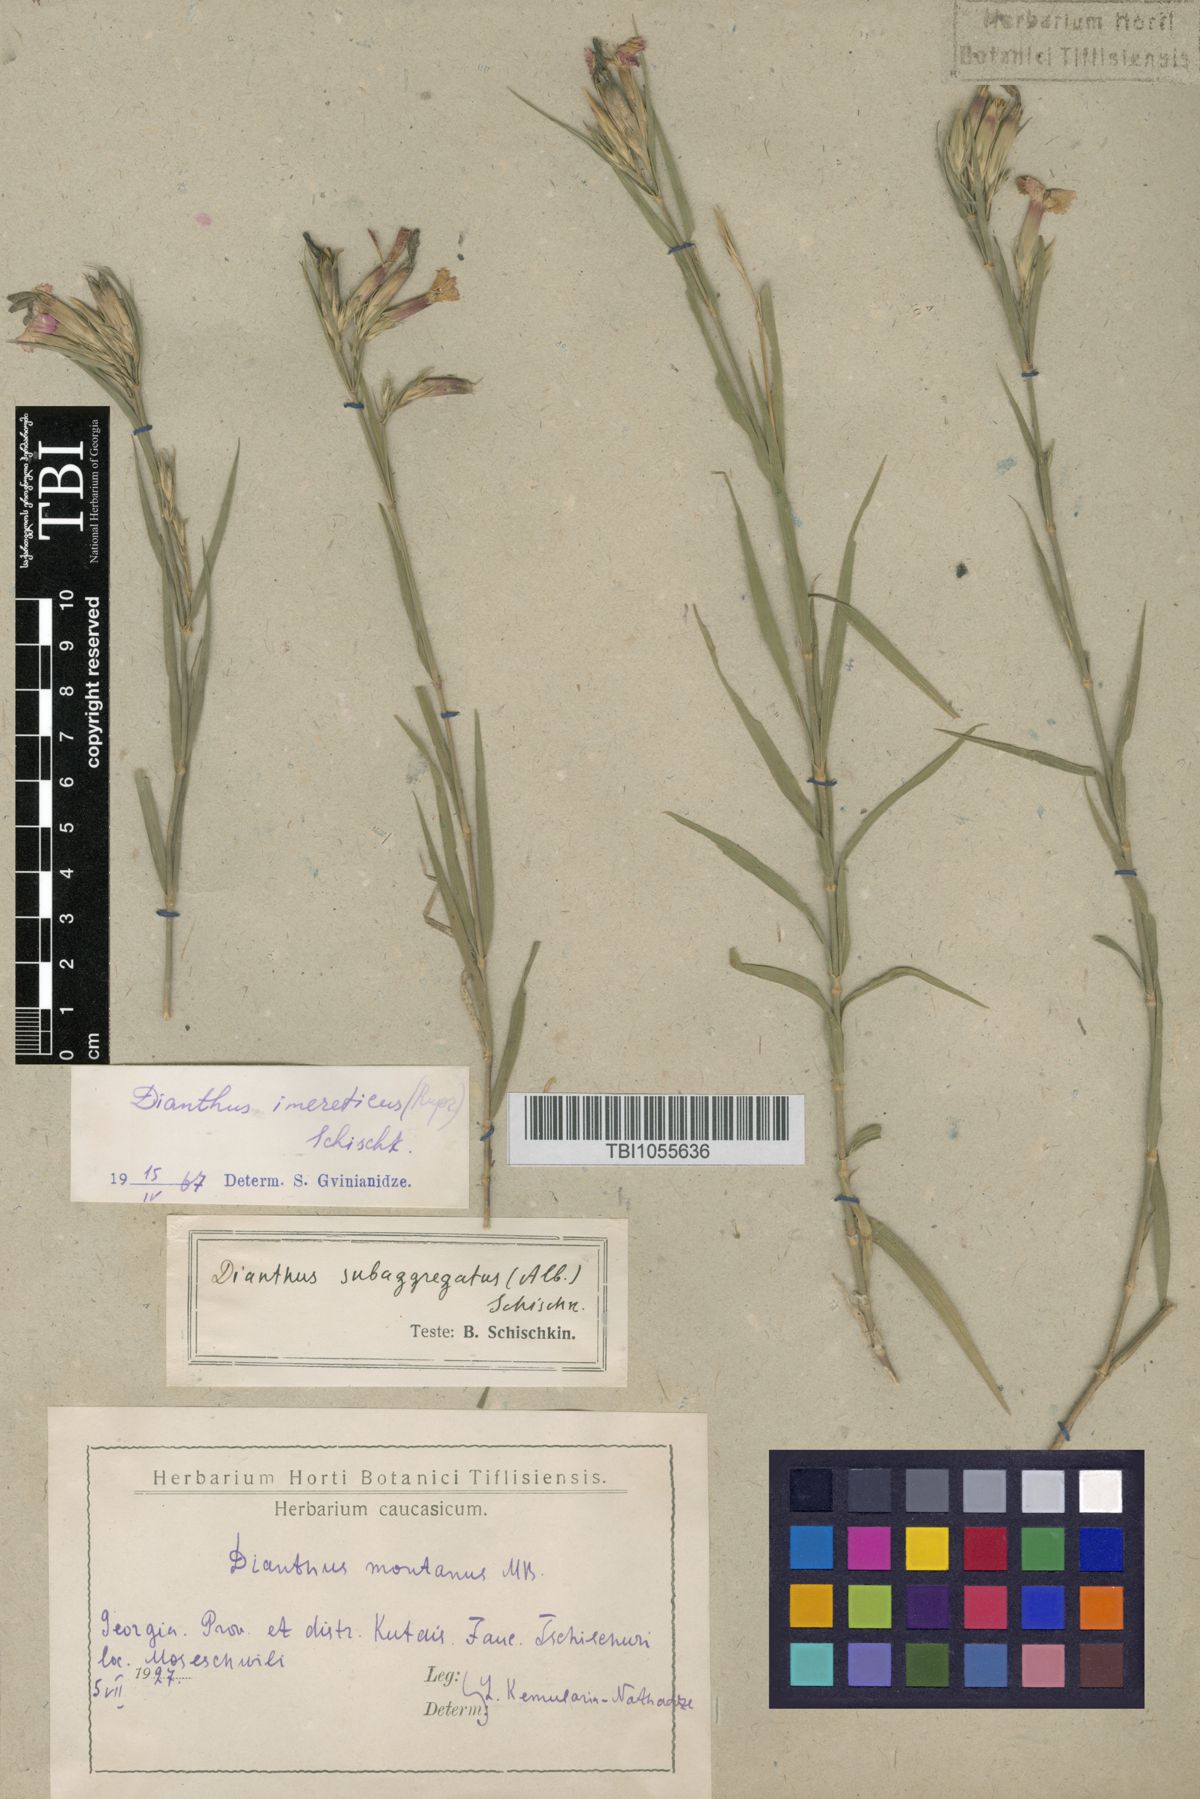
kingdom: Plantae
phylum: Tracheophyta
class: Magnoliopsida
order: Caryophyllales
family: Caryophyllaceae
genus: Dianthus
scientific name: Dianthus imereticus
